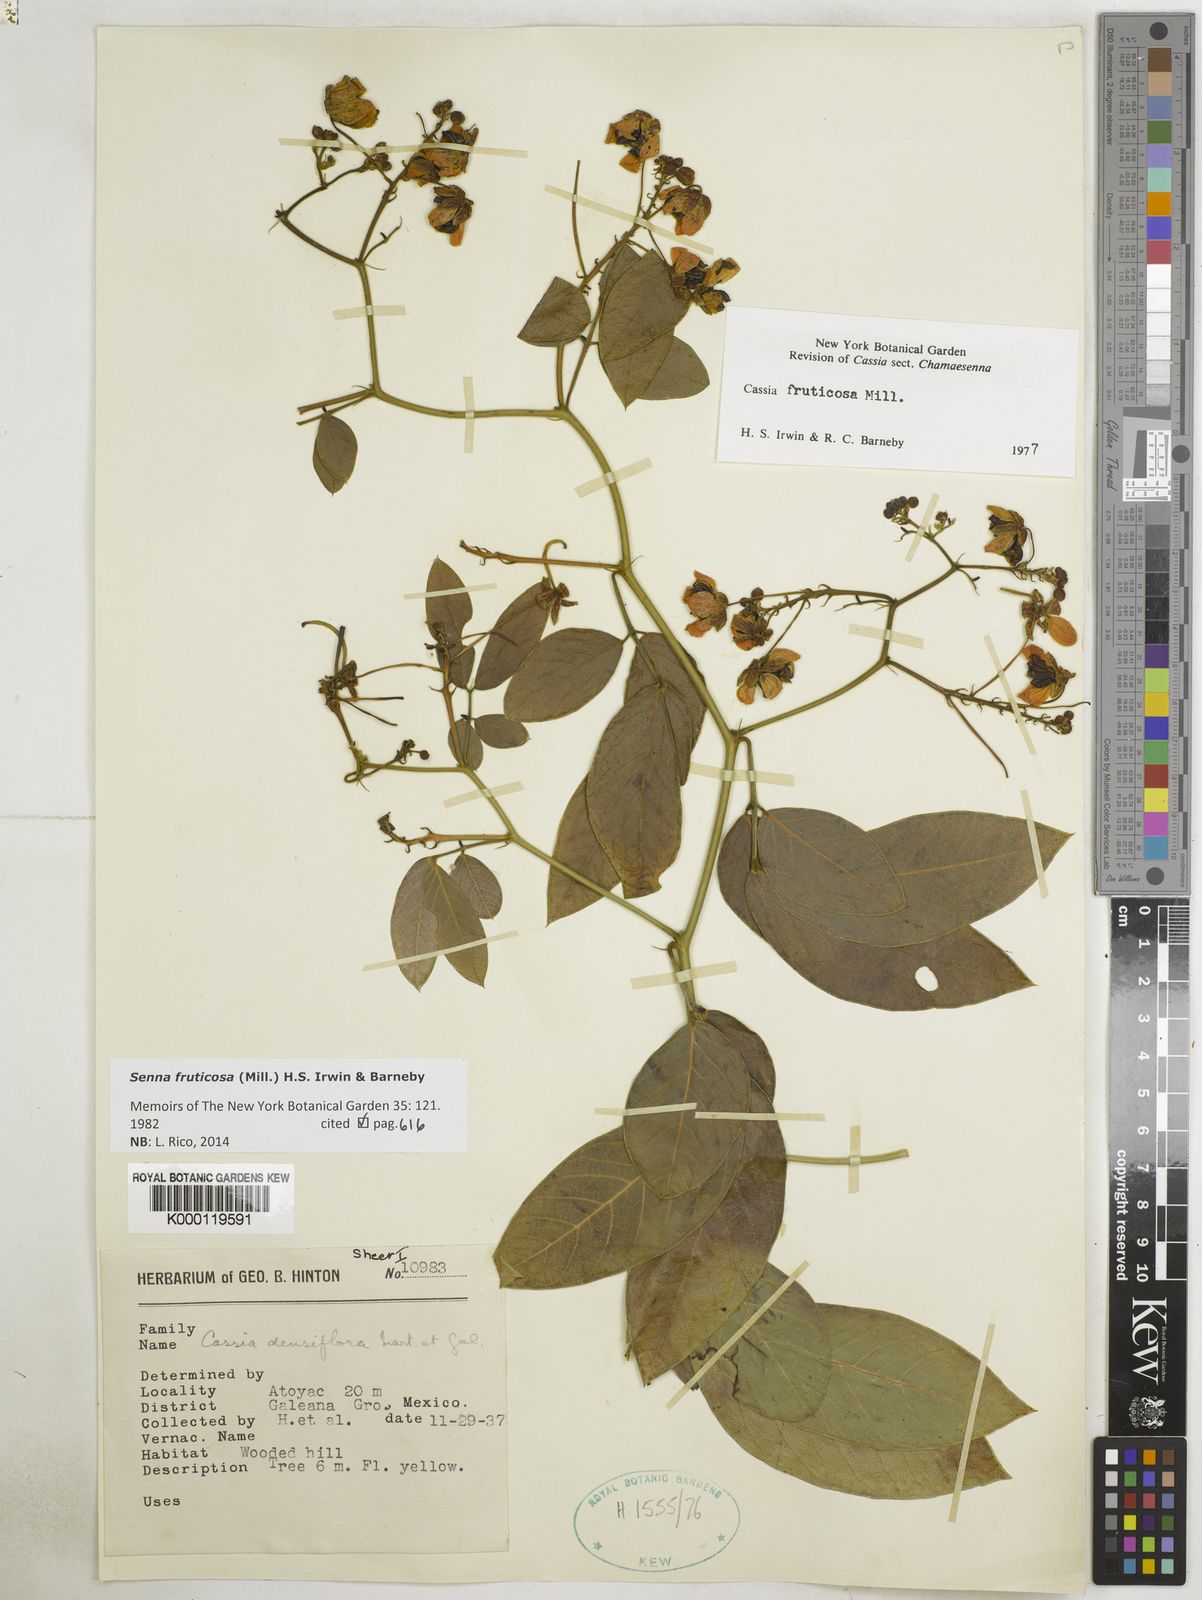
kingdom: Plantae
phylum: Tracheophyta
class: Magnoliopsida
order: Fabales
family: Fabaceae
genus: Senna
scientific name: Senna fruticosa
